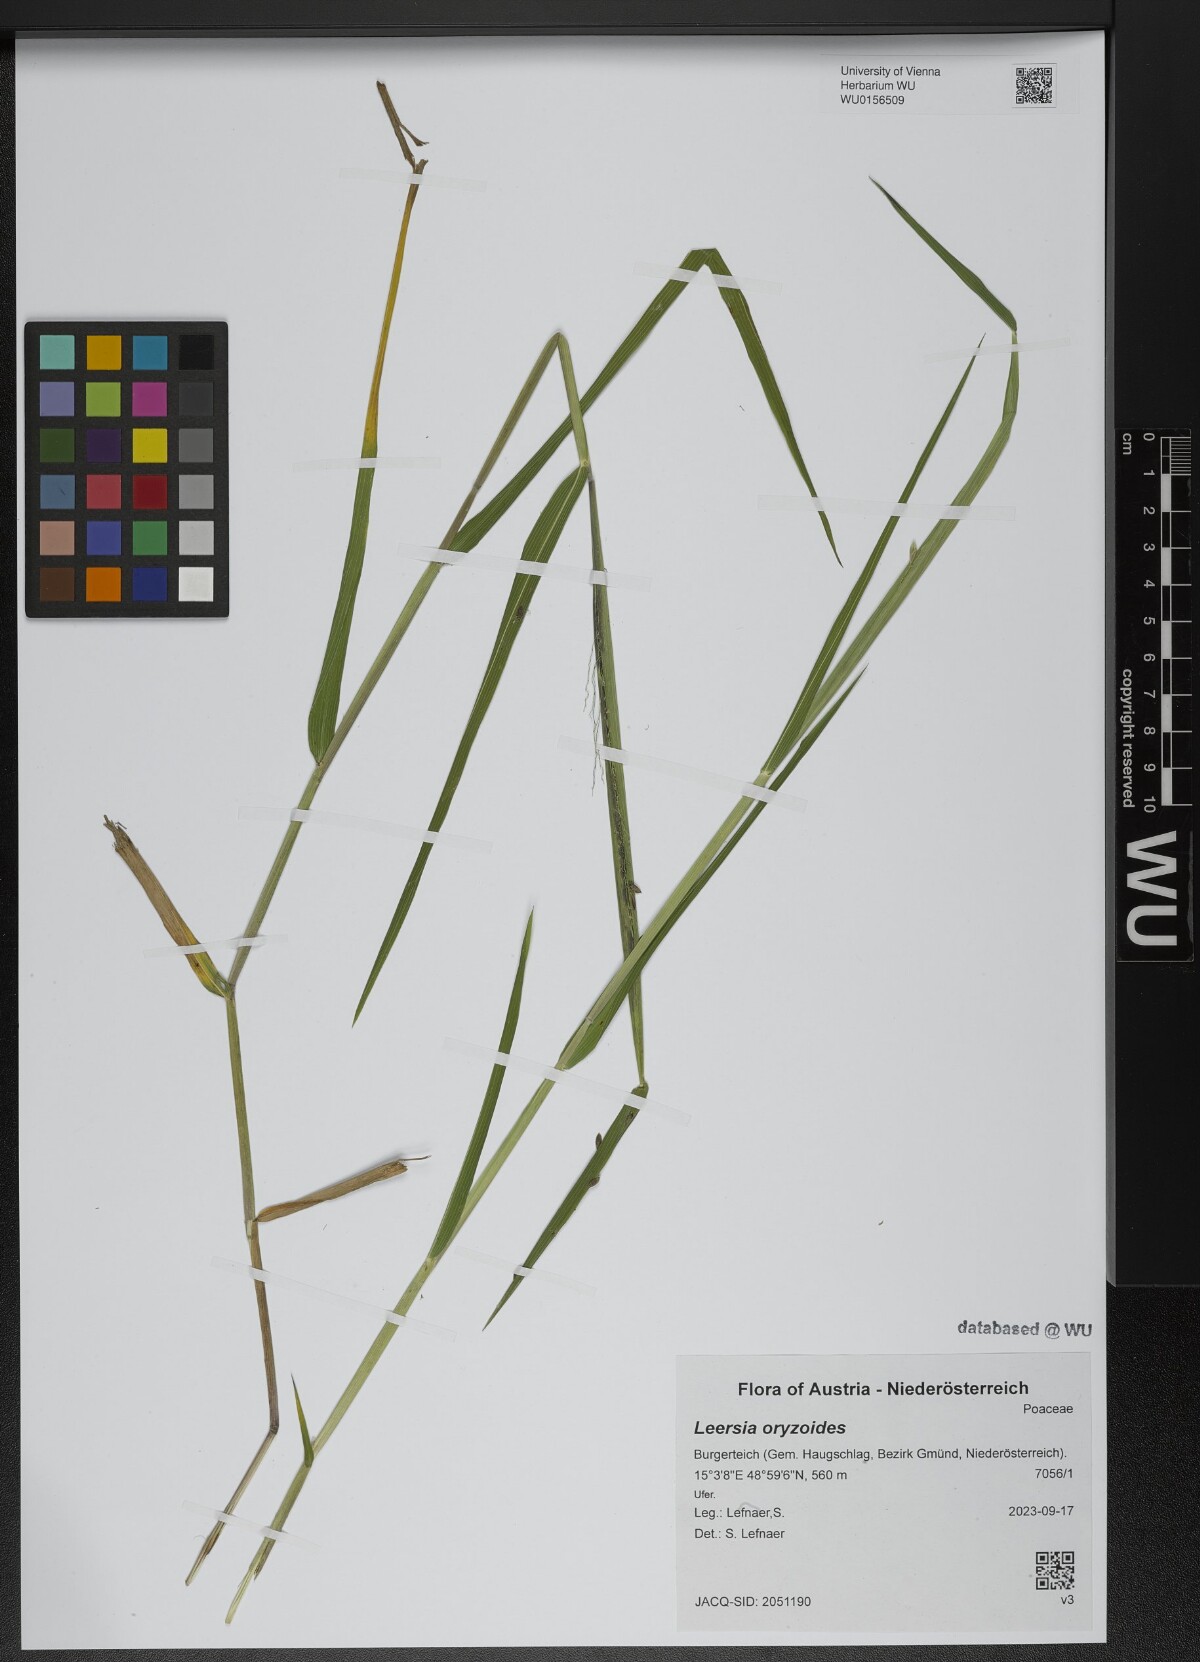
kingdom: Plantae
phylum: Tracheophyta
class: Liliopsida
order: Poales
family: Poaceae
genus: Leersia
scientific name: Leersia oryzoides
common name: Cut-grass
